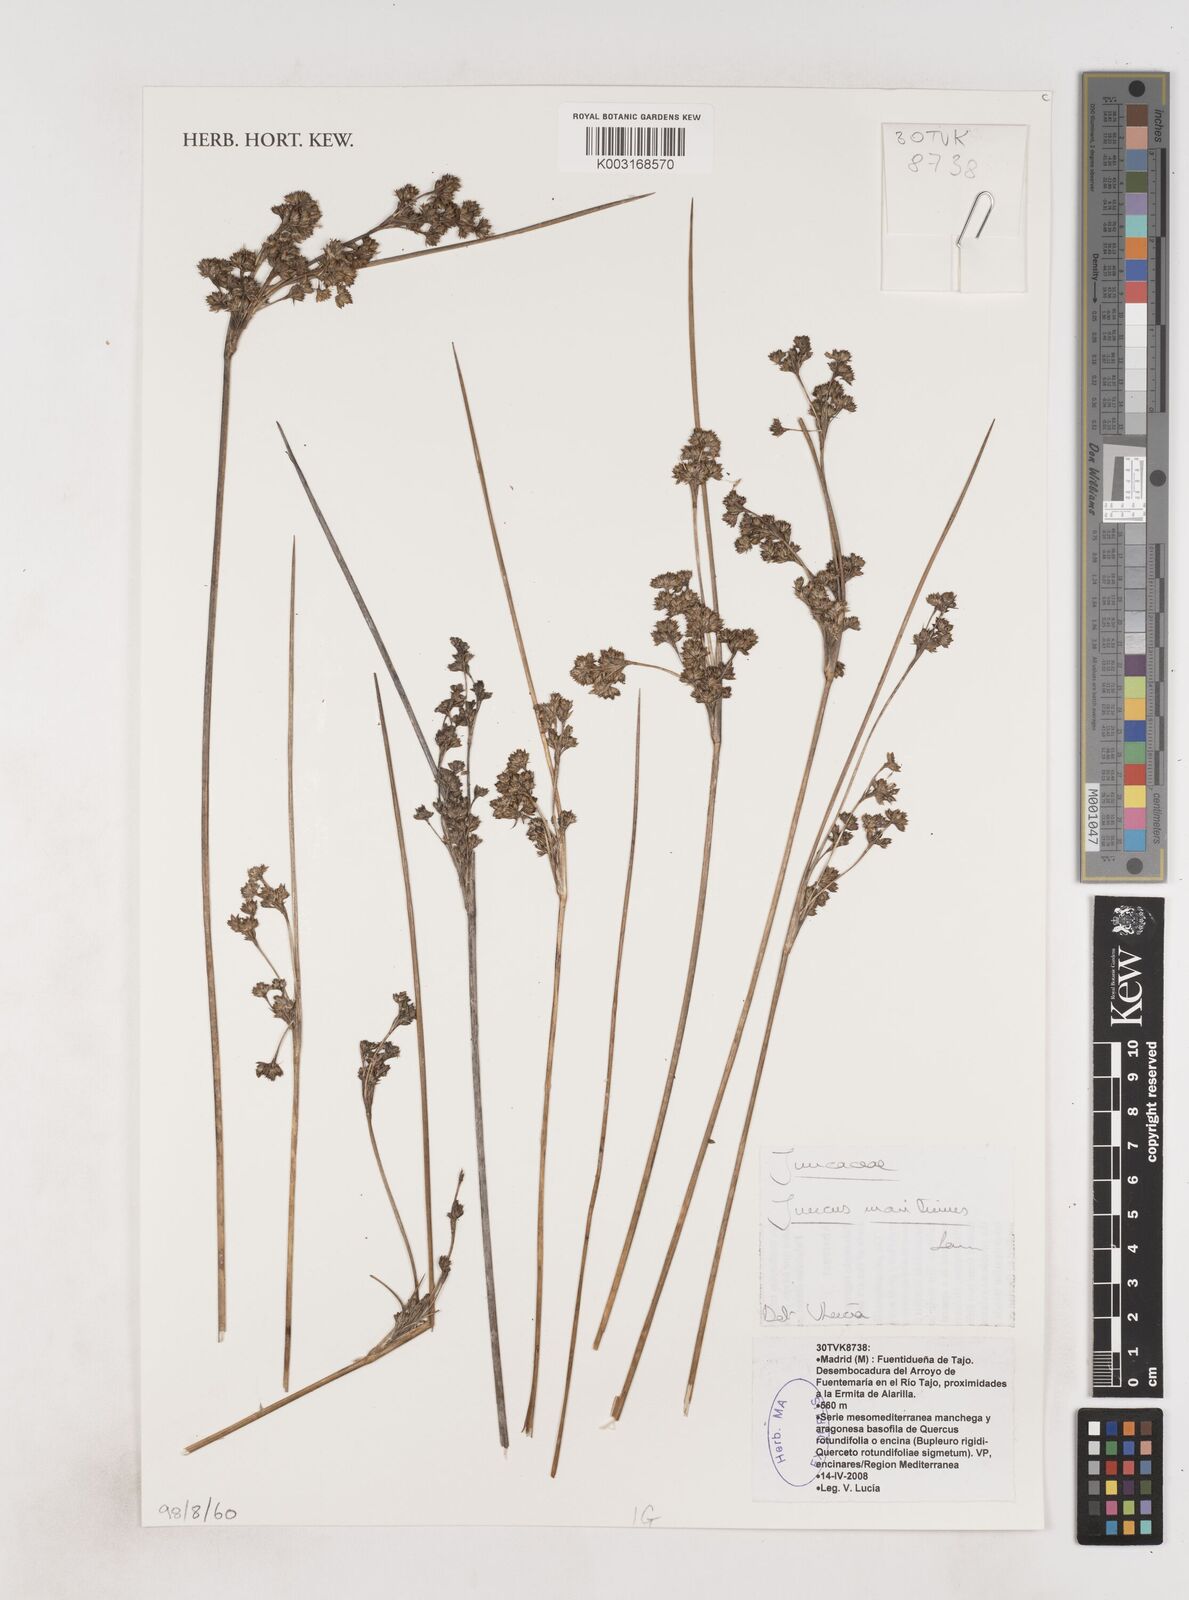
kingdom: Plantae
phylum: Tracheophyta
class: Liliopsida
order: Poales
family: Juncaceae
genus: Juncus
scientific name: Juncus maritimus
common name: Sea rush
